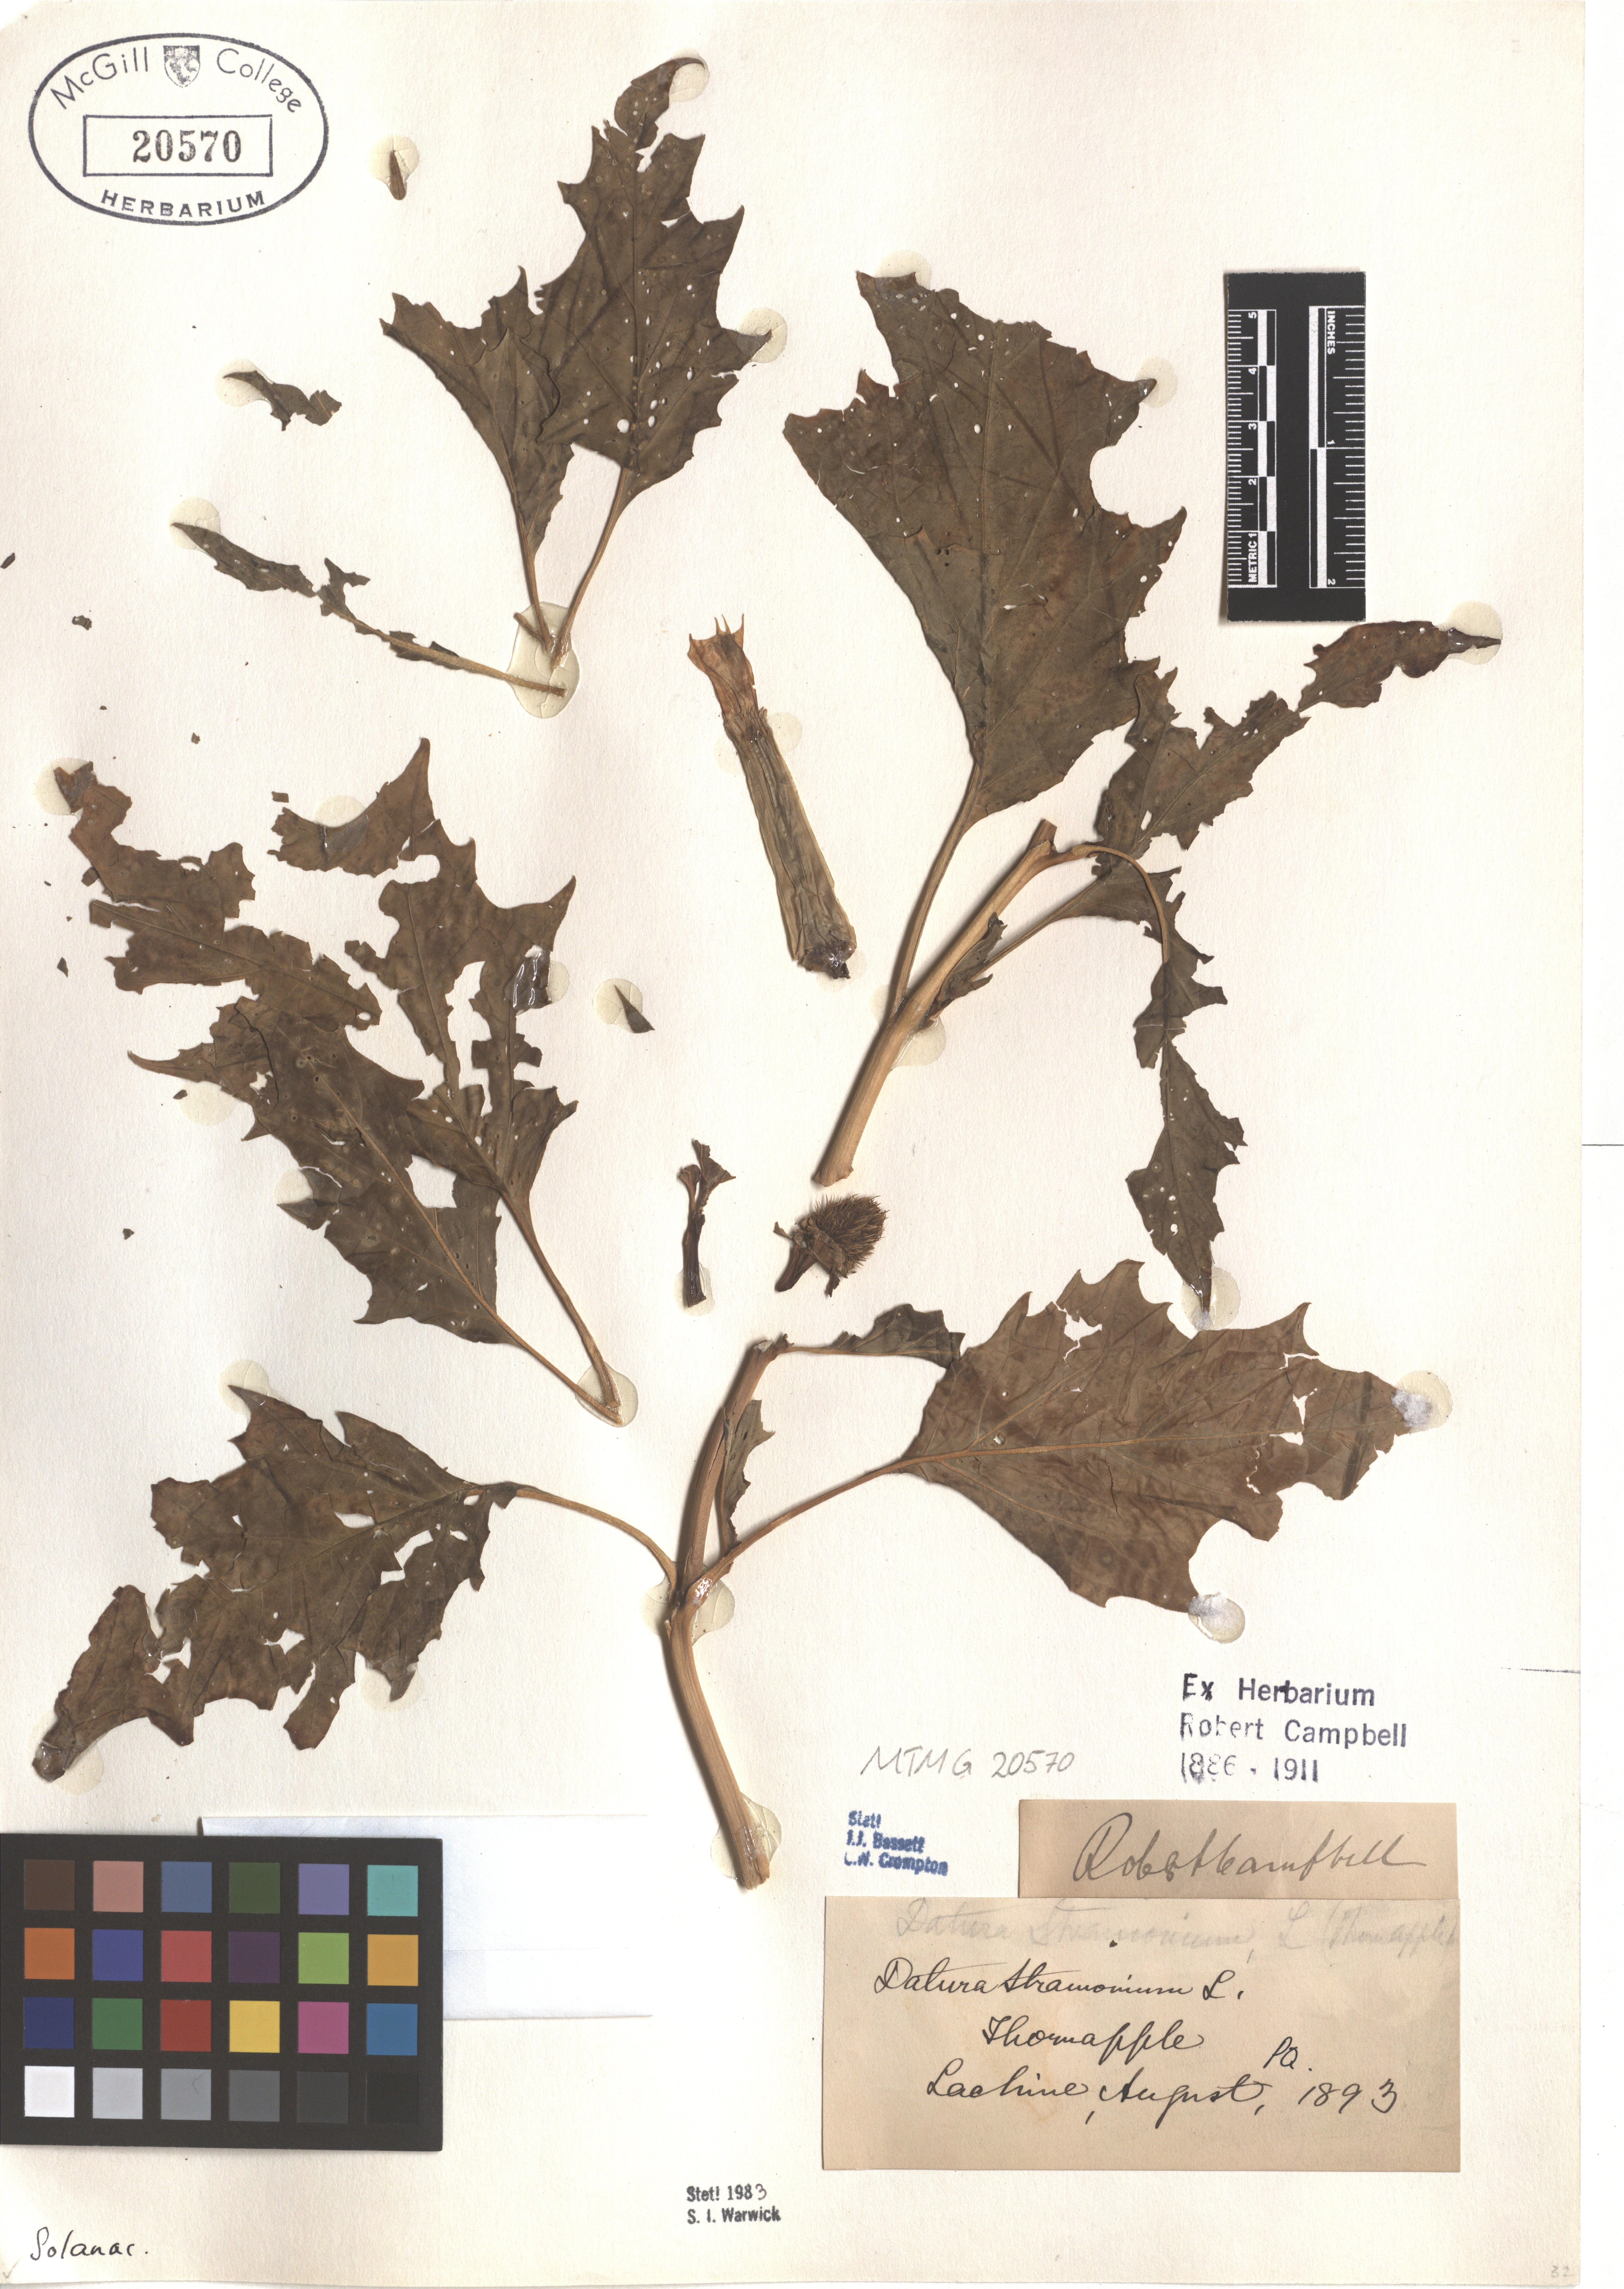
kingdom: Plantae
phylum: Tracheophyta
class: Magnoliopsida
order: Solanales
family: Solanaceae
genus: Datura
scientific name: Datura stramonium
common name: Thorn-apple
